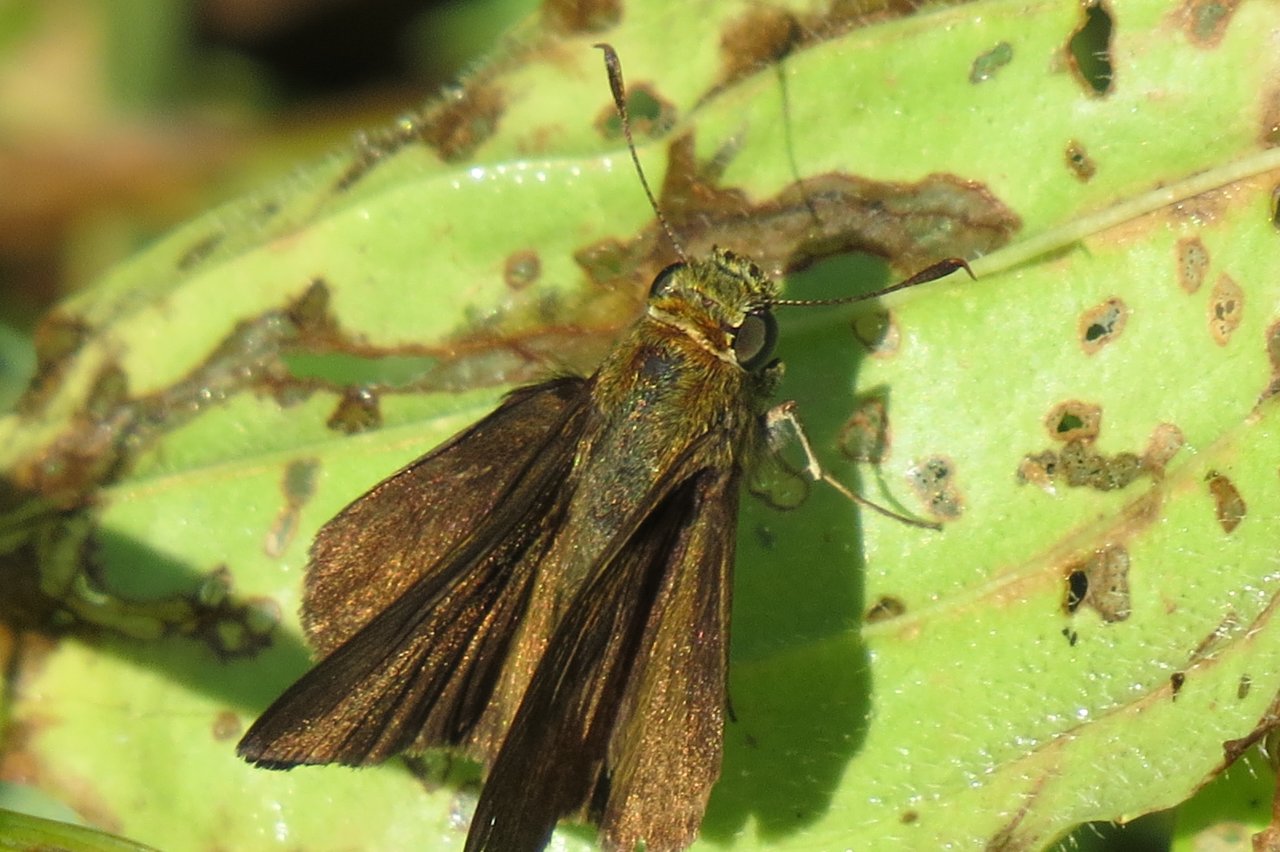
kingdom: Animalia
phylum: Arthropoda
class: Insecta
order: Lepidoptera
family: Hesperiidae
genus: Euphyes
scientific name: Euphyes vestris
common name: Dun Skipper
